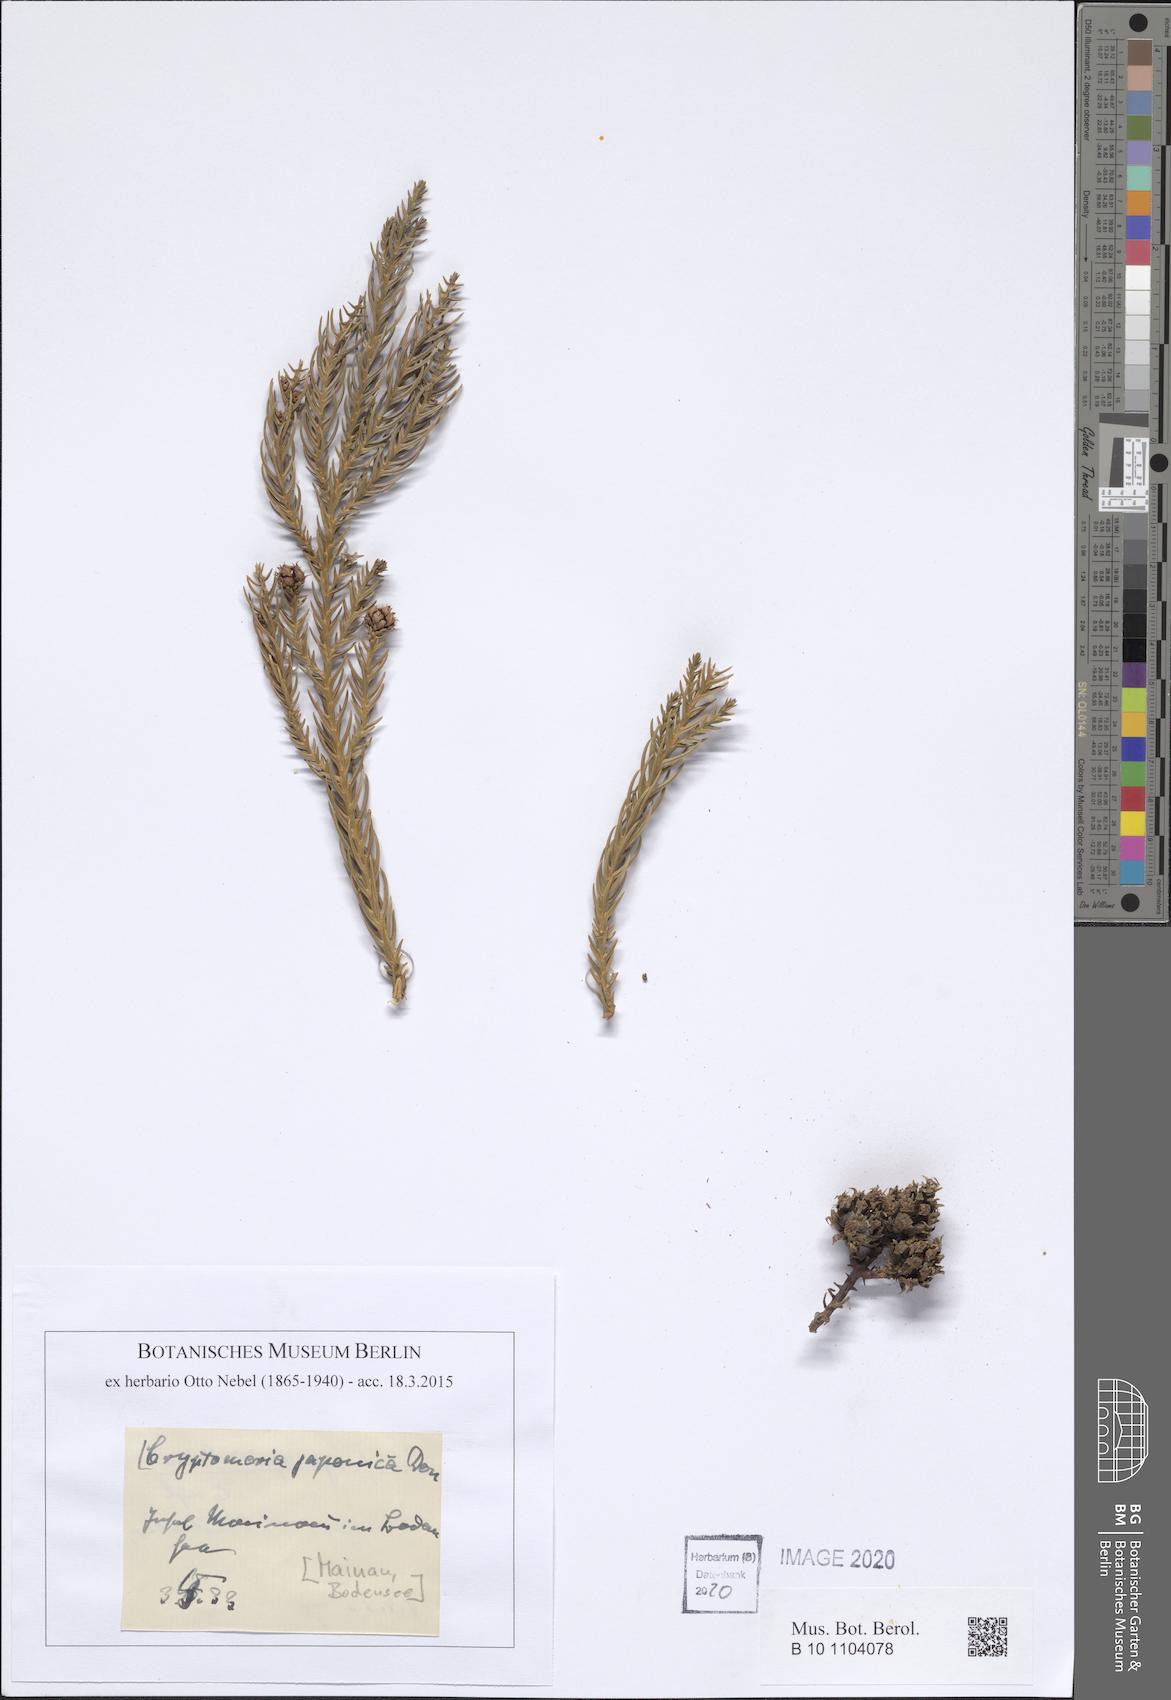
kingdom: Plantae
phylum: Tracheophyta
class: Pinopsida
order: Pinales
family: Cupressaceae
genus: Cryptomeria
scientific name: Cryptomeria japonica
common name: Japanese cedar
